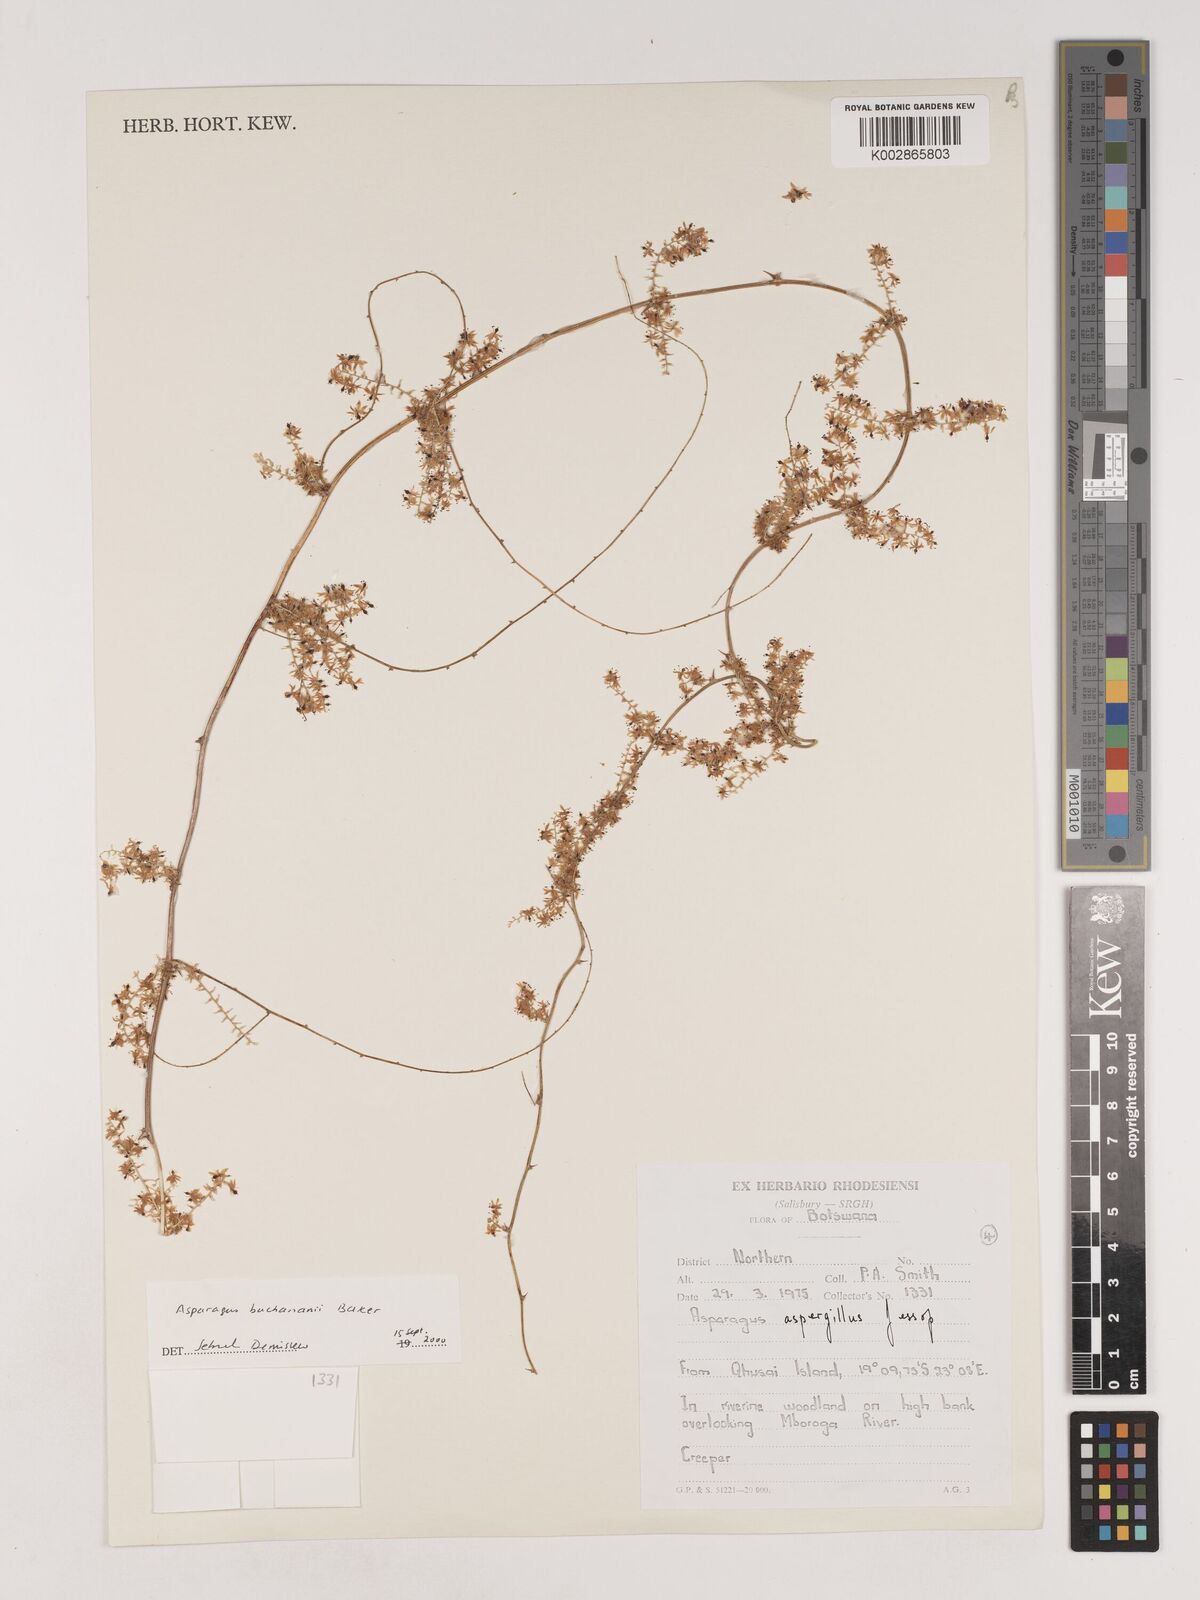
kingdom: Plantae
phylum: Tracheophyta
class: Liliopsida
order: Asparagales
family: Asparagaceae
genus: Asparagus
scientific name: Asparagus buchananii
